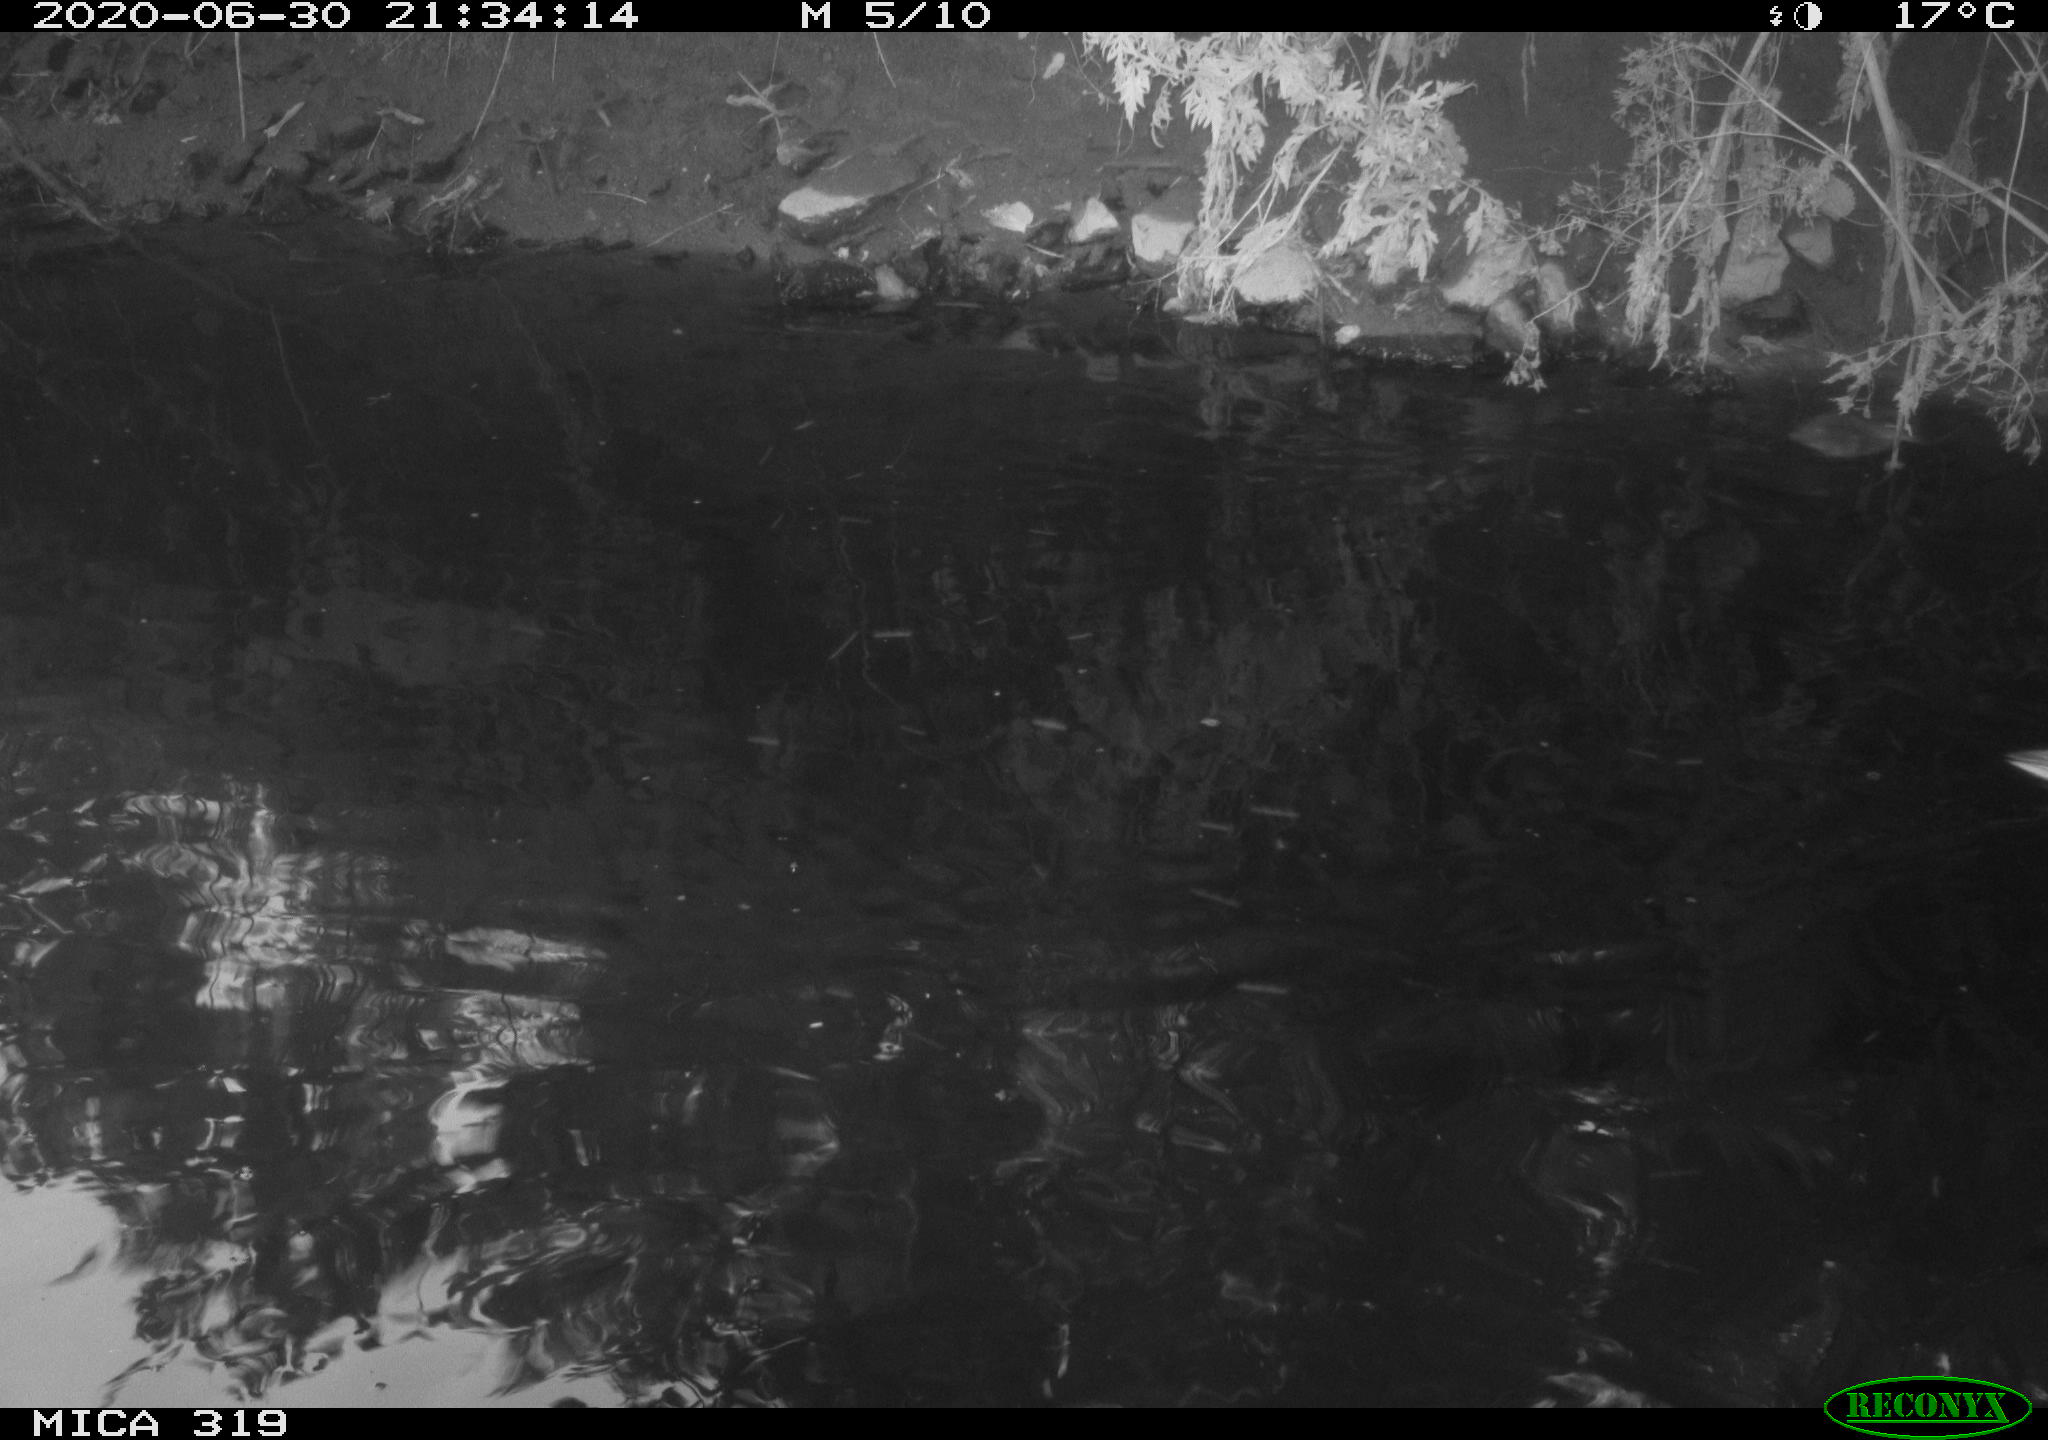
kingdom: Animalia
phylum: Chordata
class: Aves
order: Anseriformes
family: Anatidae
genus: Anas
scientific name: Anas platyrhynchos
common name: Mallard
